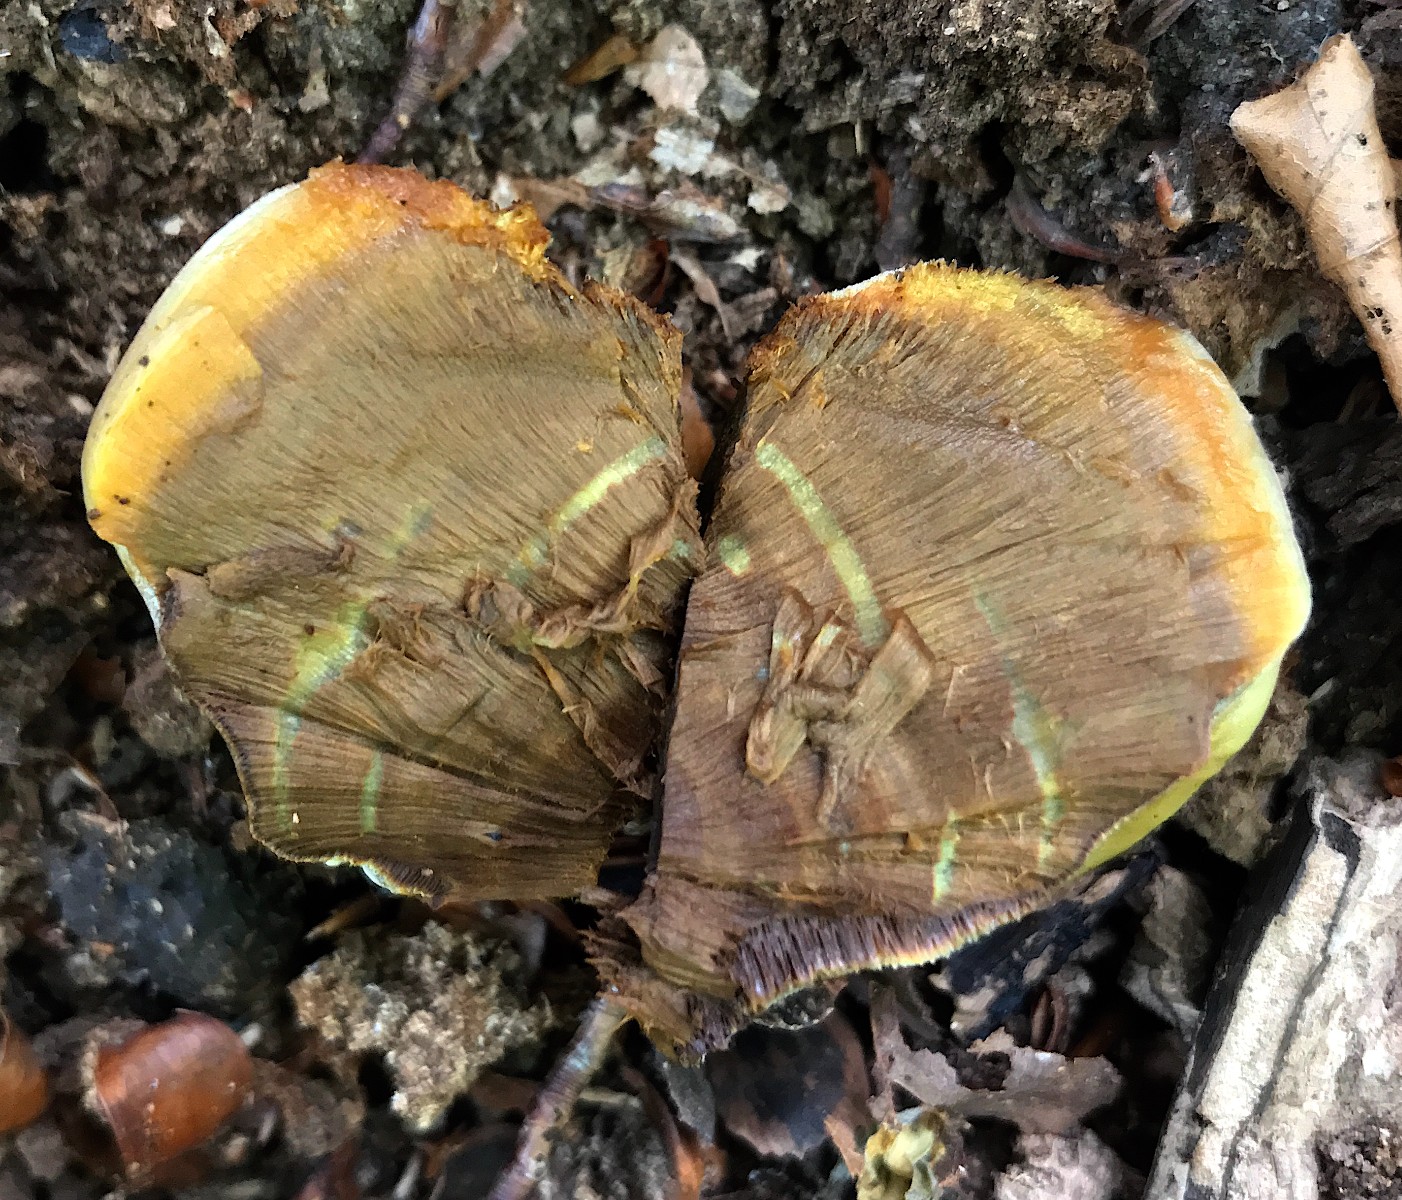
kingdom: Fungi
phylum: Basidiomycota
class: Agaricomycetes
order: Hymenochaetales
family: Hymenochaetaceae
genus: Inonotus
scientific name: Inonotus cuticularis
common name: kroghåret spejlporesvamp
